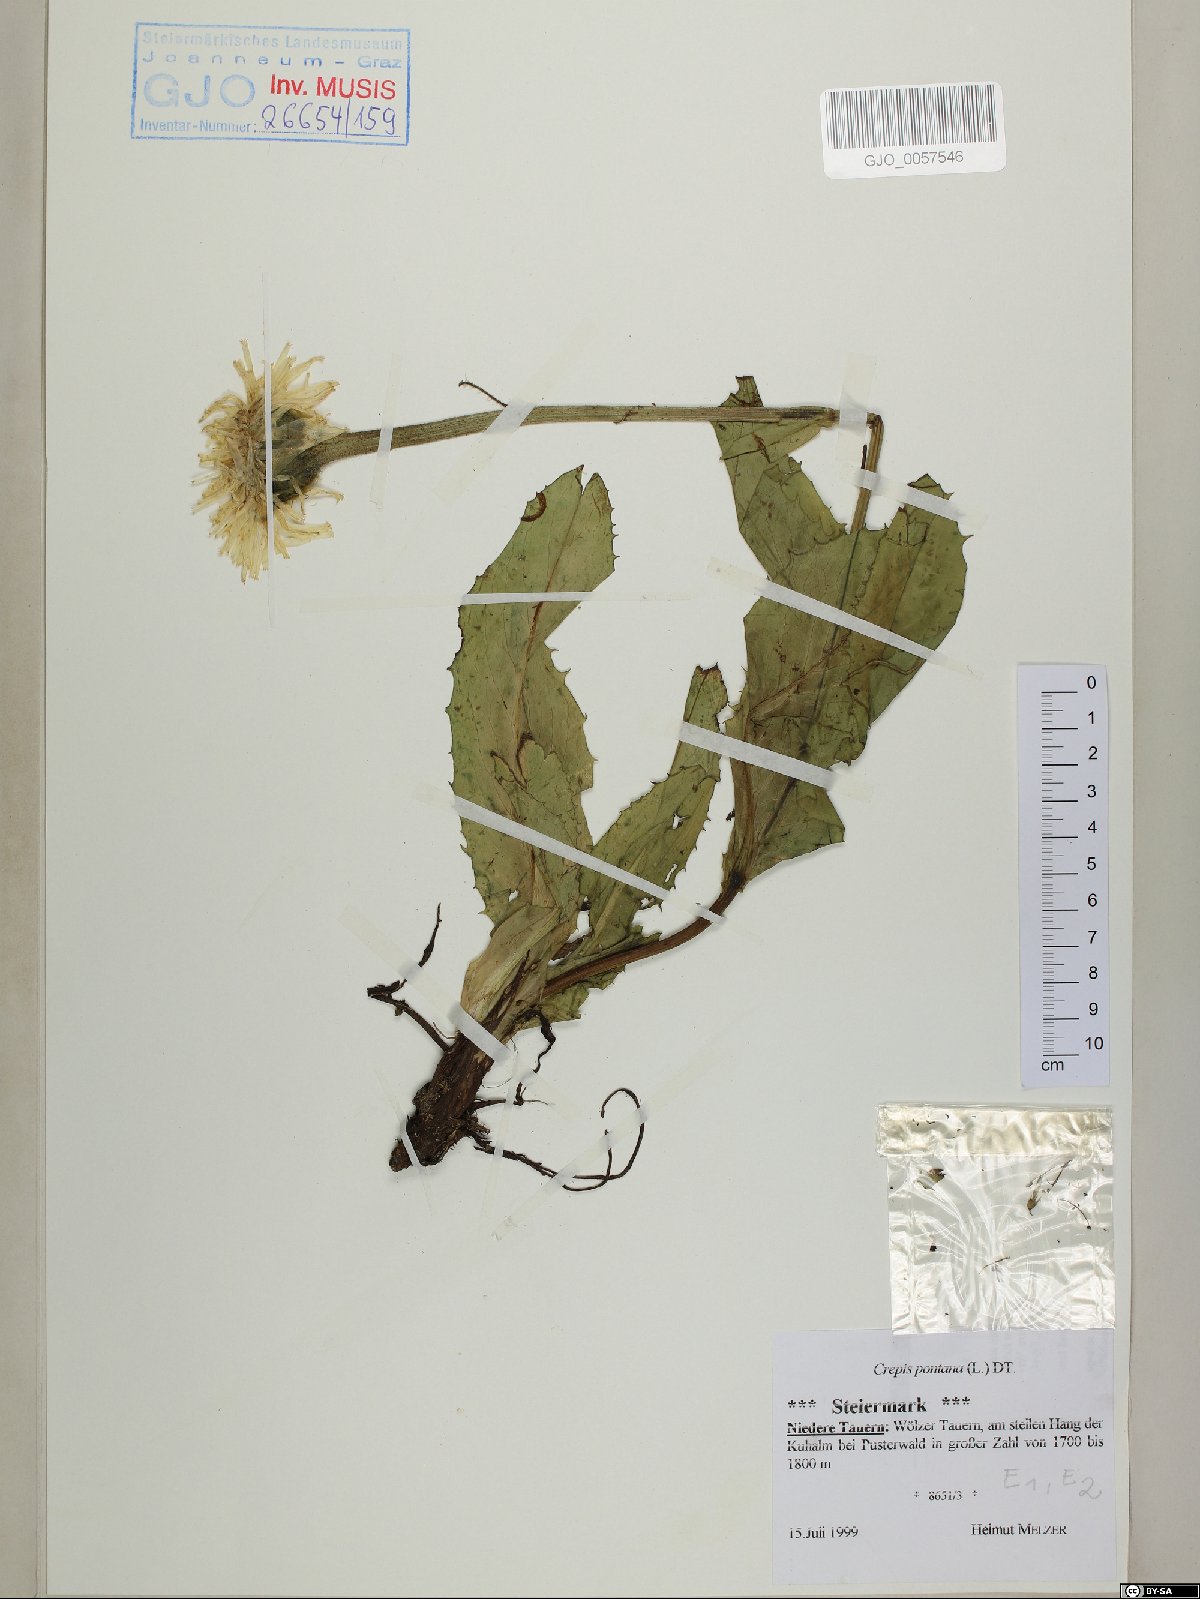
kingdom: Plantae
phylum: Tracheophyta
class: Magnoliopsida
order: Asterales
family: Asteraceae
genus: Crepis
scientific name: Crepis pontana
